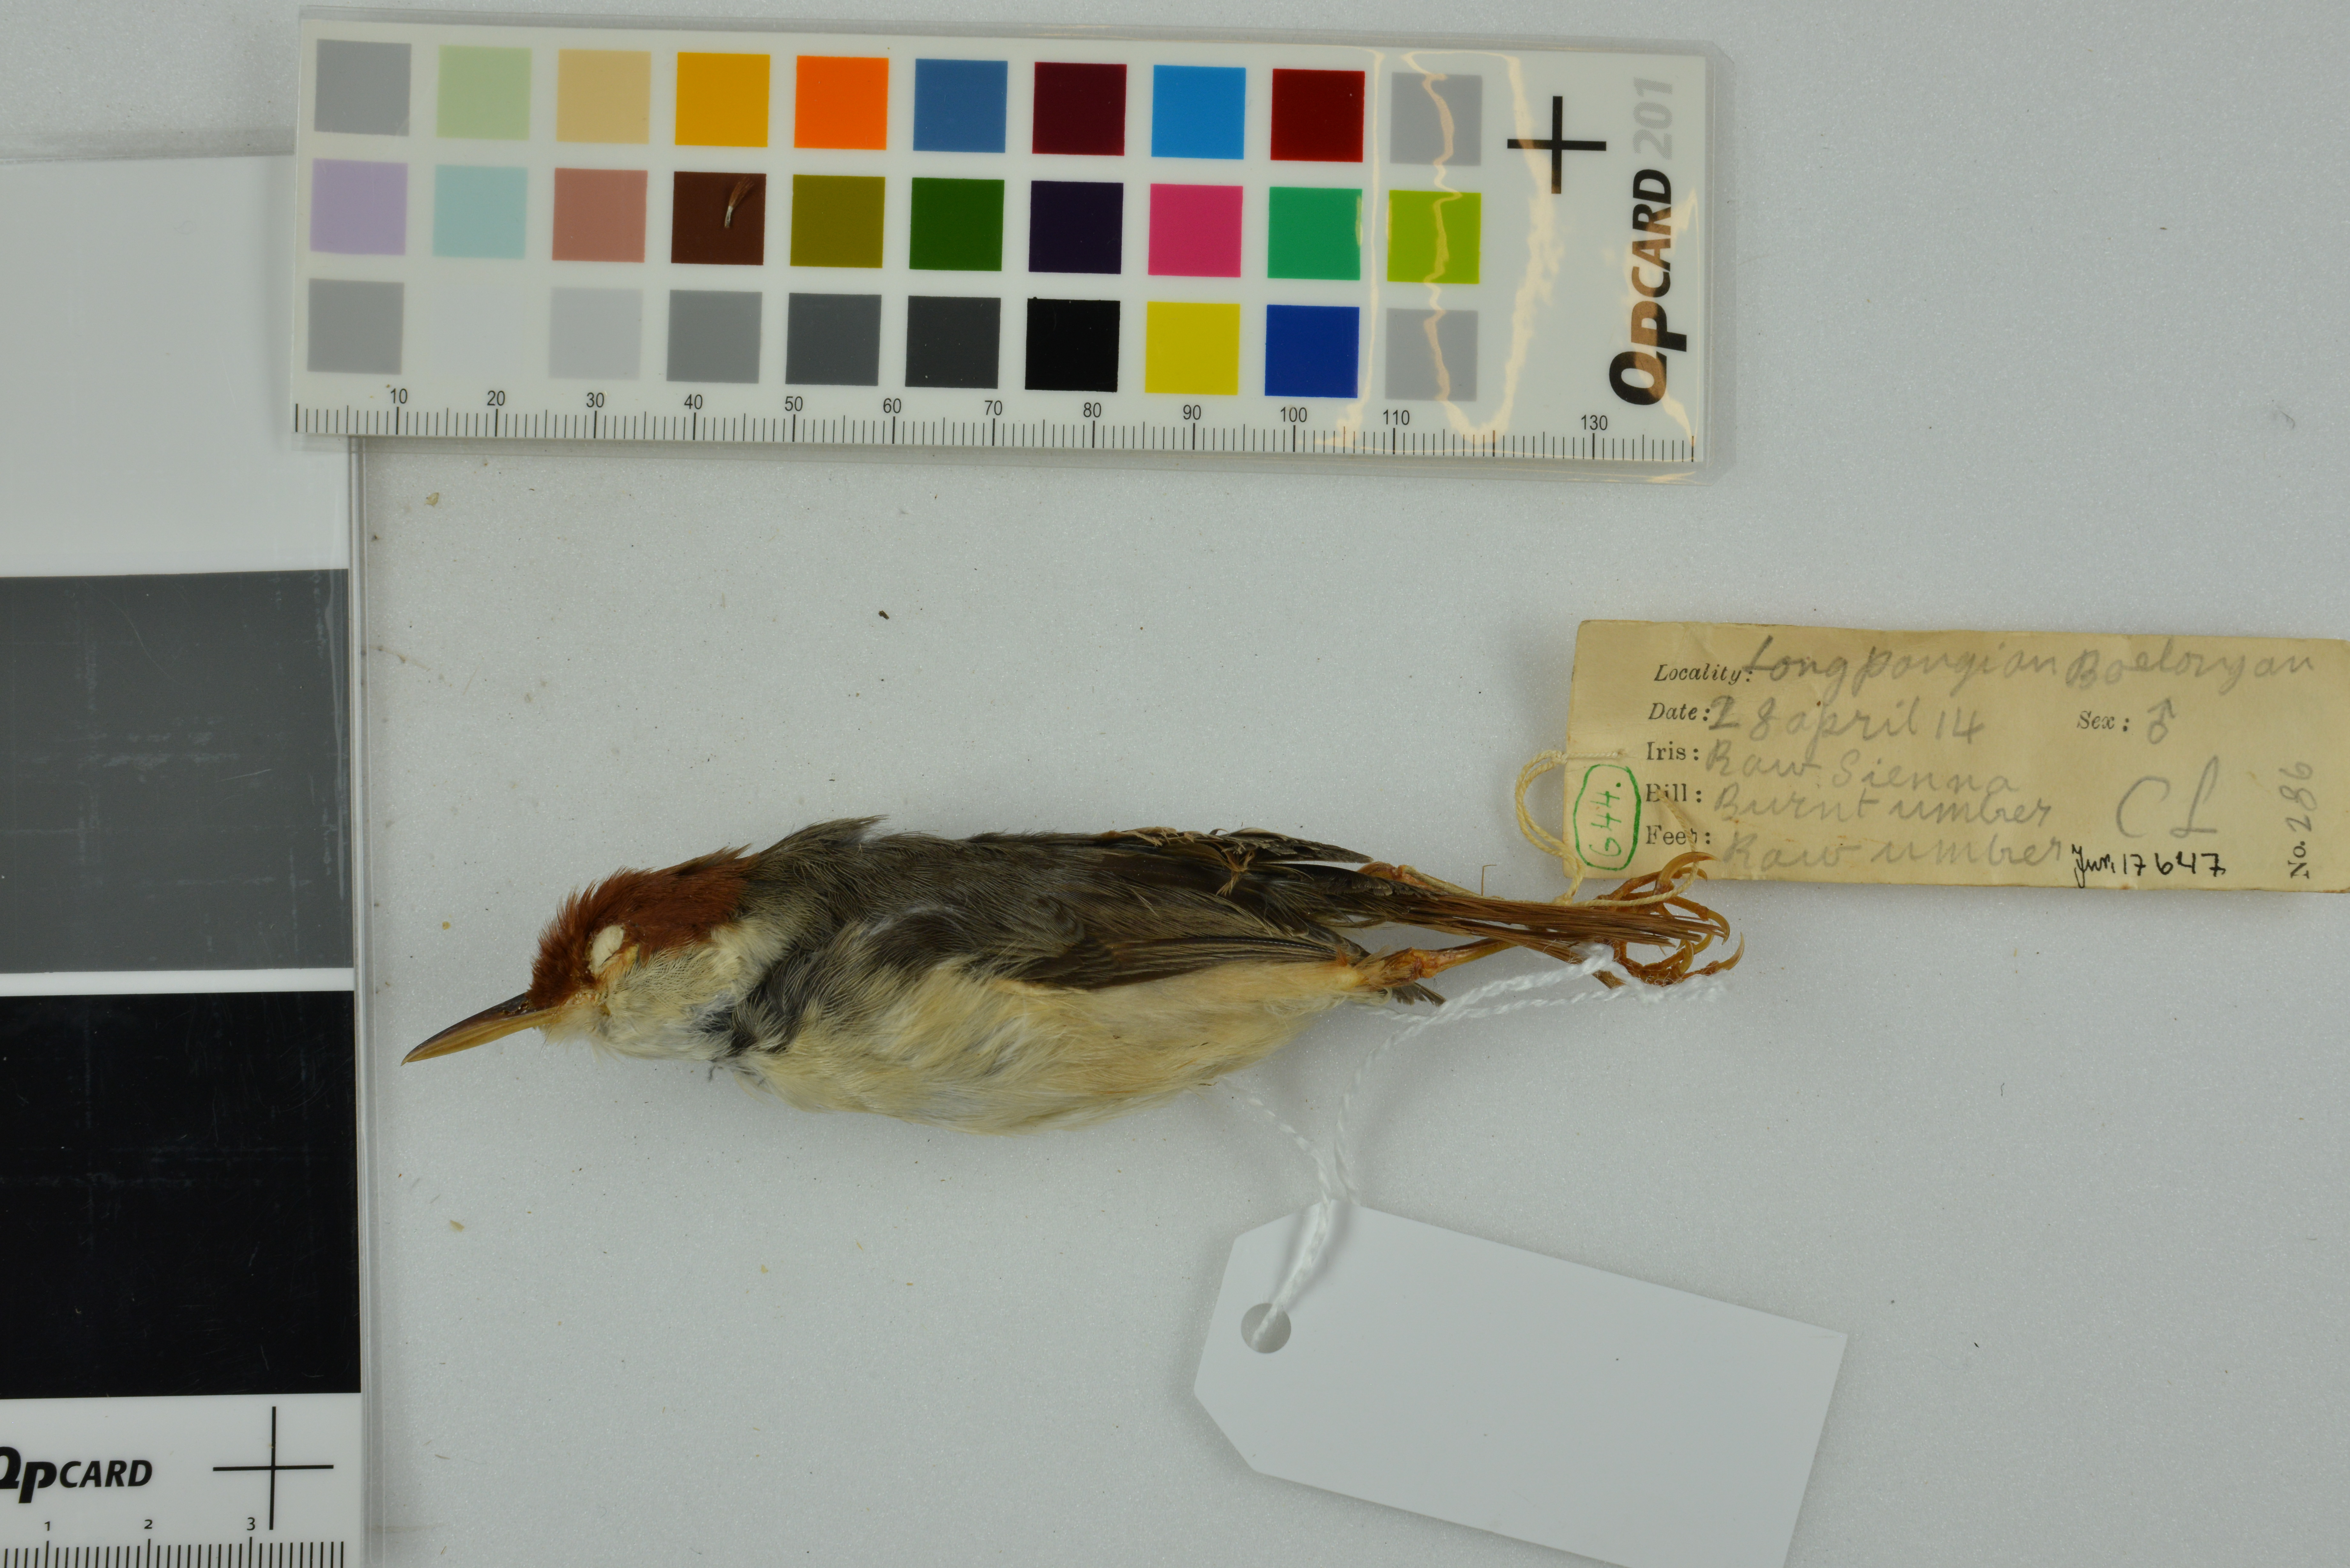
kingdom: Animalia
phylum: Chordata
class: Aves
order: Passeriformes
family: Cisticolidae
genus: Orthotomus
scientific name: Orthotomus sericeus
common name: Rufous-tailed tailorbird
